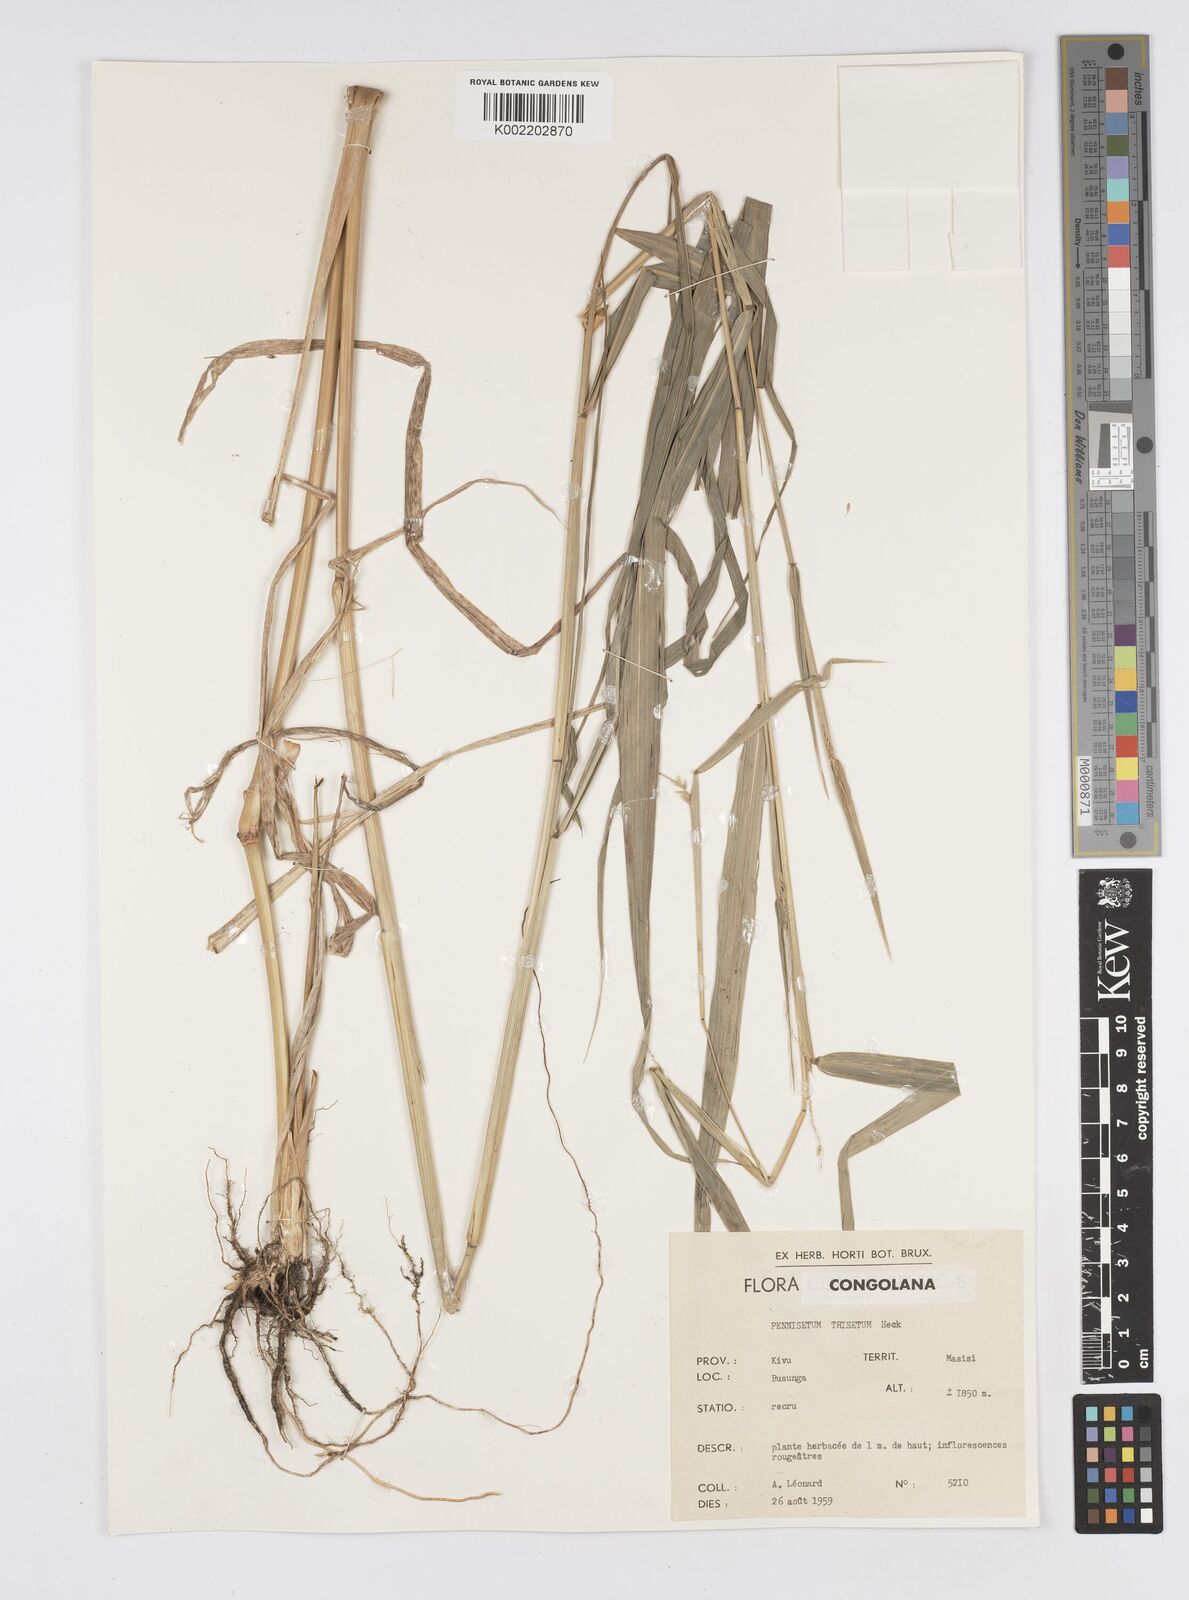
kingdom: Plantae
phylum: Tracheophyta
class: Liliopsida
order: Poales
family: Poaceae
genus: Cenchrus
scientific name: Cenchrus trisetus
